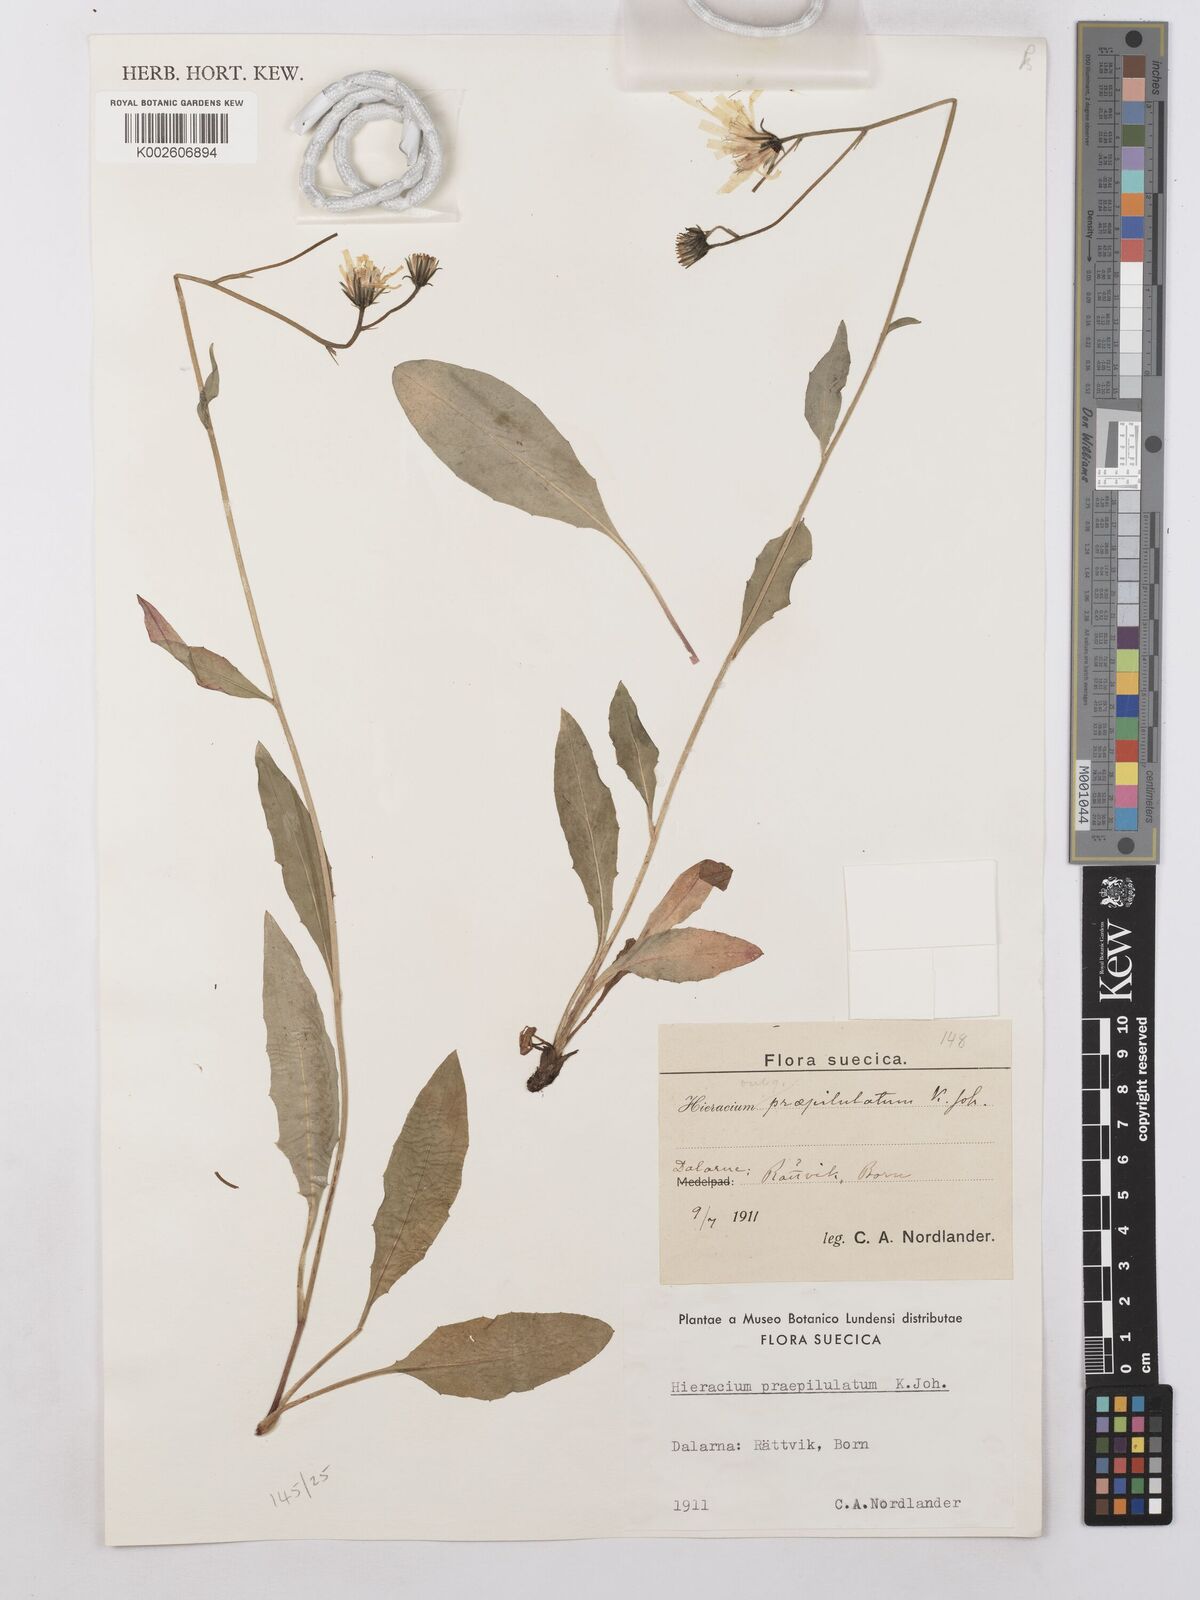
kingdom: Plantae
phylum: Tracheophyta
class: Magnoliopsida
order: Asterales
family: Asteraceae
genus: Hieracium
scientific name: Hieracium levicaule
